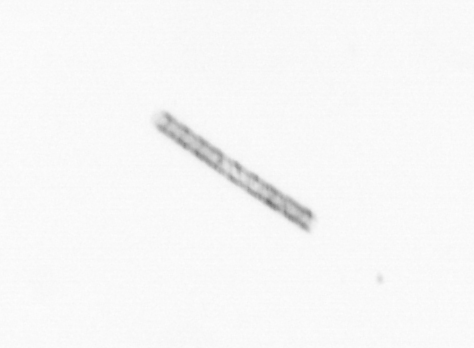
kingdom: Chromista
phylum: Ochrophyta
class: Bacillariophyceae
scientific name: Bacillariophyceae
